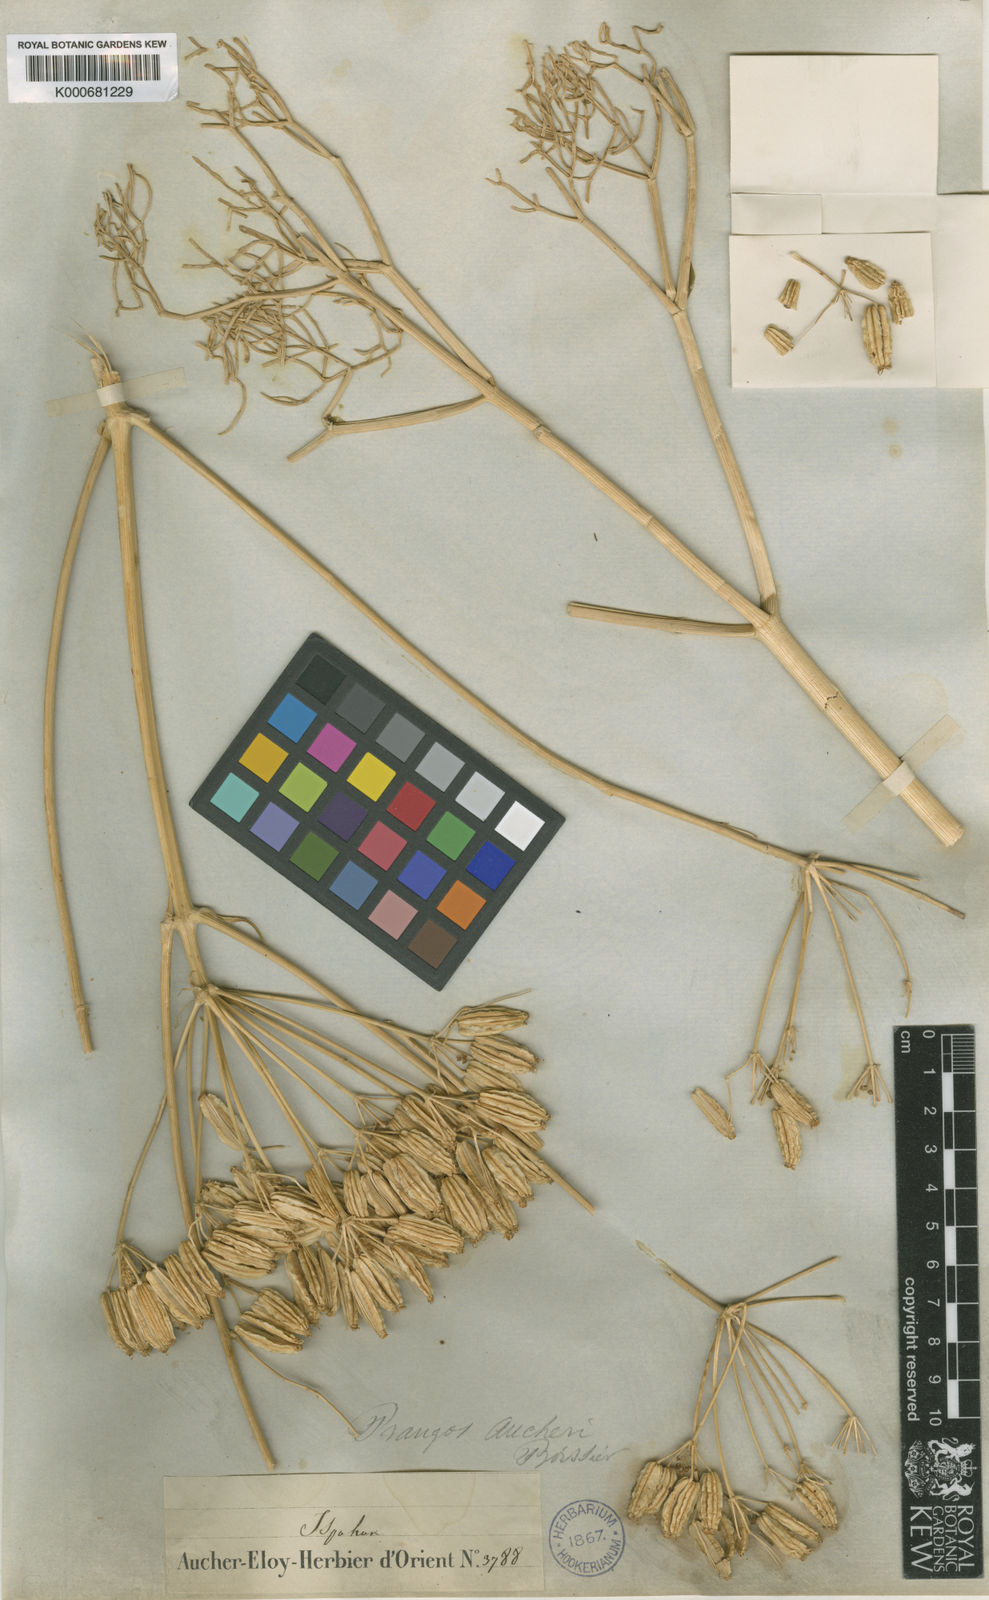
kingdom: Plantae
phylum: Tracheophyta
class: Magnoliopsida
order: Apiales
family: Apiaceae
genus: Prangos
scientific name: Prangos uloptera
